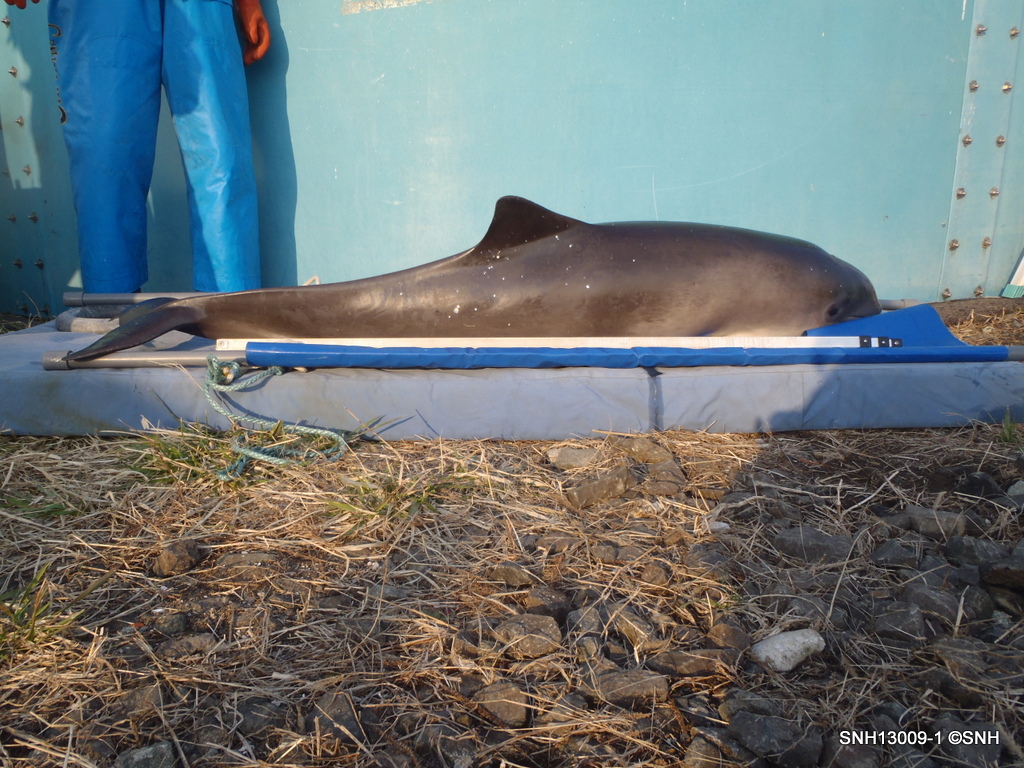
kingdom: Animalia
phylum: Chordata
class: Mammalia
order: Cetacea
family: Phocoenidae
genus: Phocoena
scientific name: Phocoena phocoena
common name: Harbour porpoise
